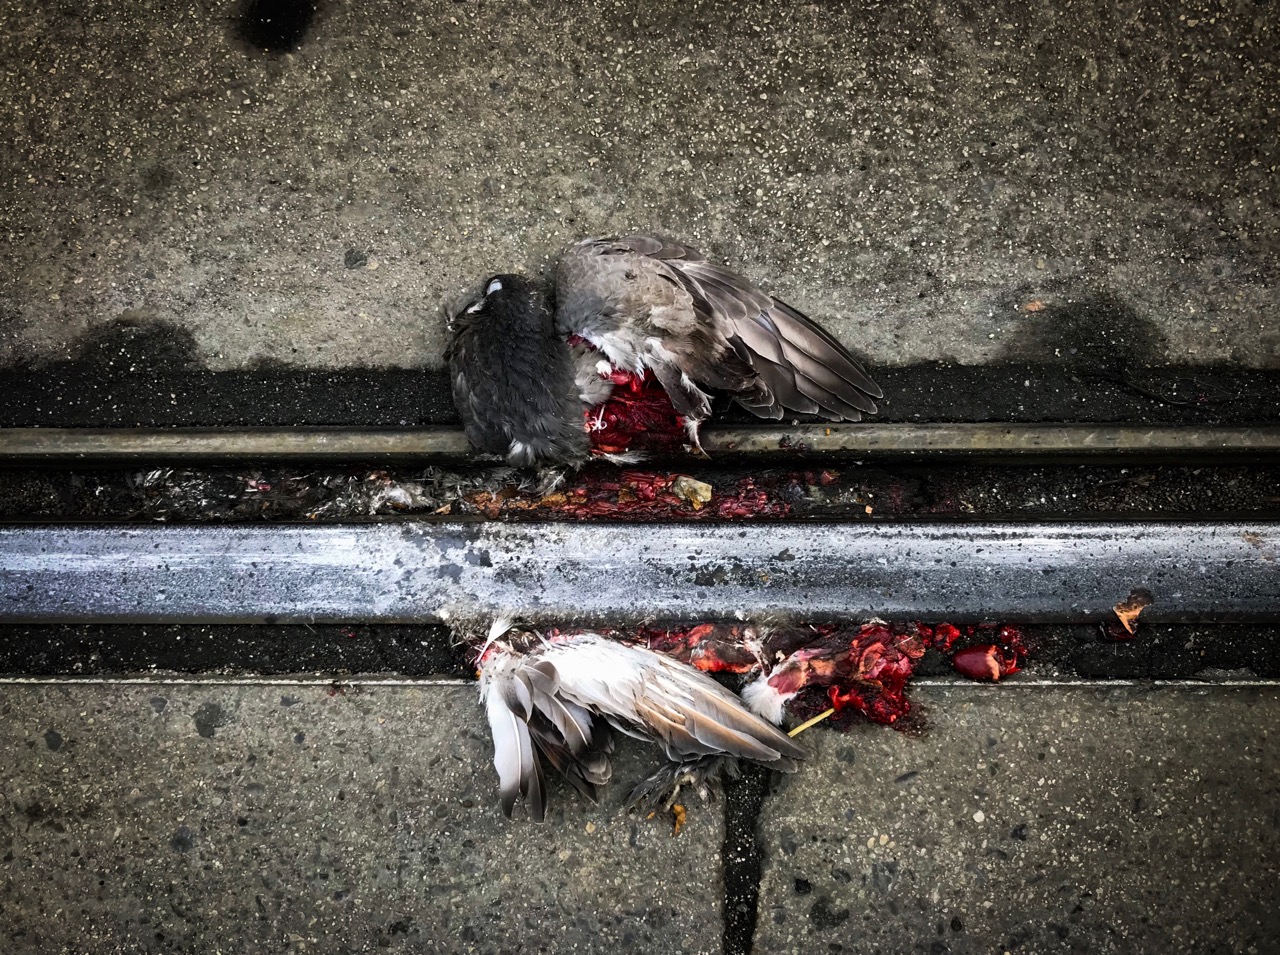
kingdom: Animalia
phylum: Chordata
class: Aves
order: Columbiformes
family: Columbidae
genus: Columba
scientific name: Columba livia
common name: Rock pigeon
